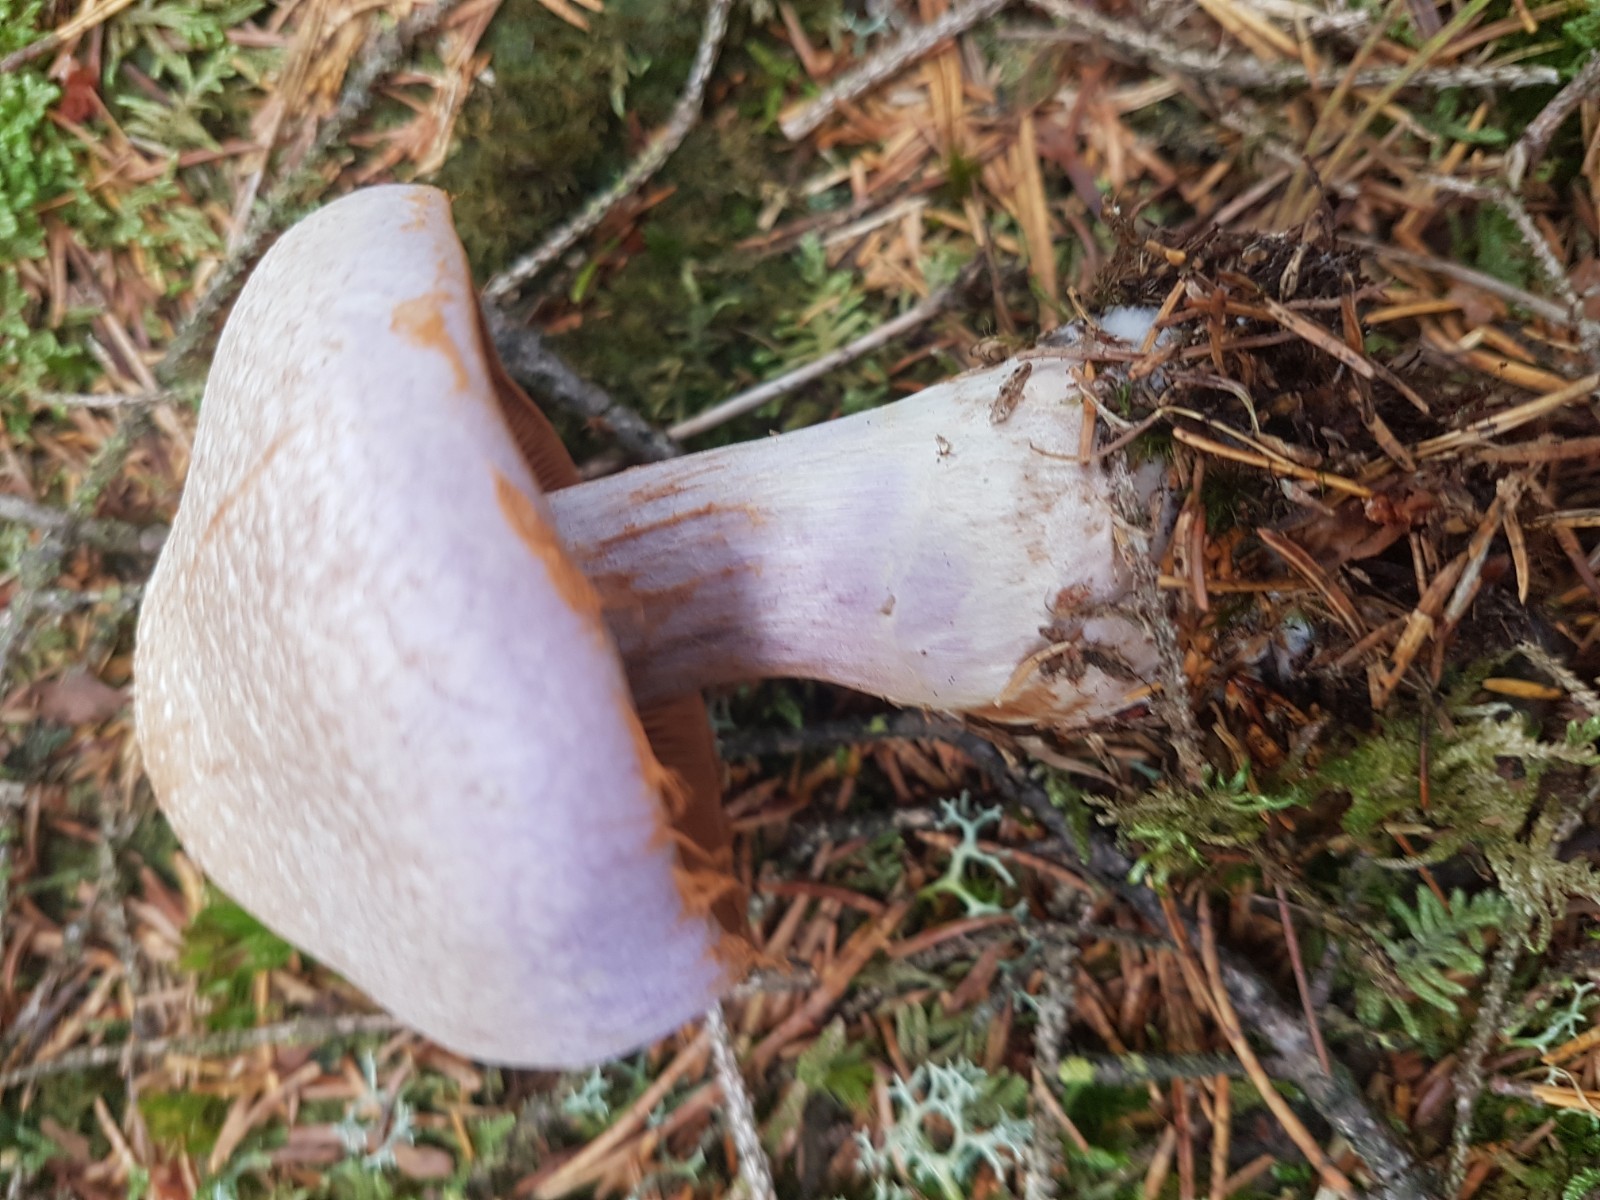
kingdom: Fungi
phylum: Basidiomycota
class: Agaricomycetes
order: Agaricales
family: Cortinariaceae
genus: Cortinarius
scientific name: Cortinarius traganus
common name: safrankødet slørhat
